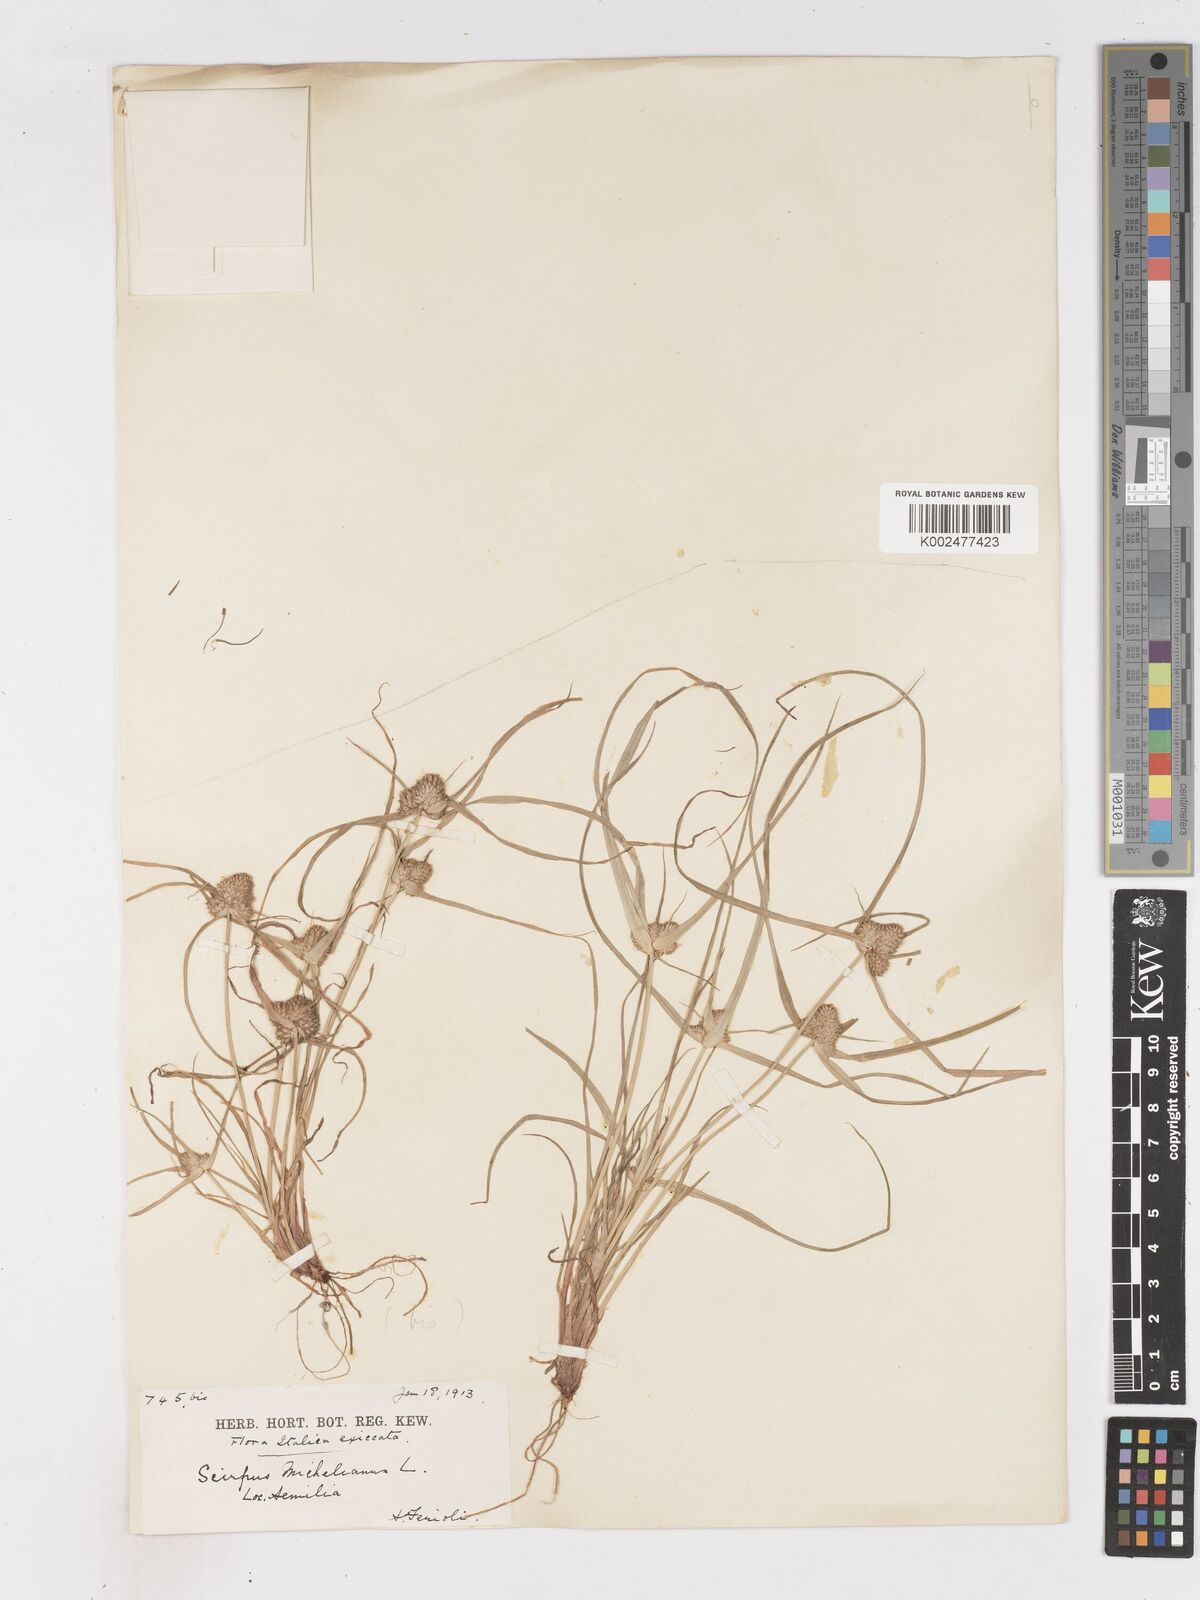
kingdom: Plantae
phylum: Tracheophyta
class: Liliopsida
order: Poales
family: Cyperaceae
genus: Cyperus
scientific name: Cyperus michelianus
